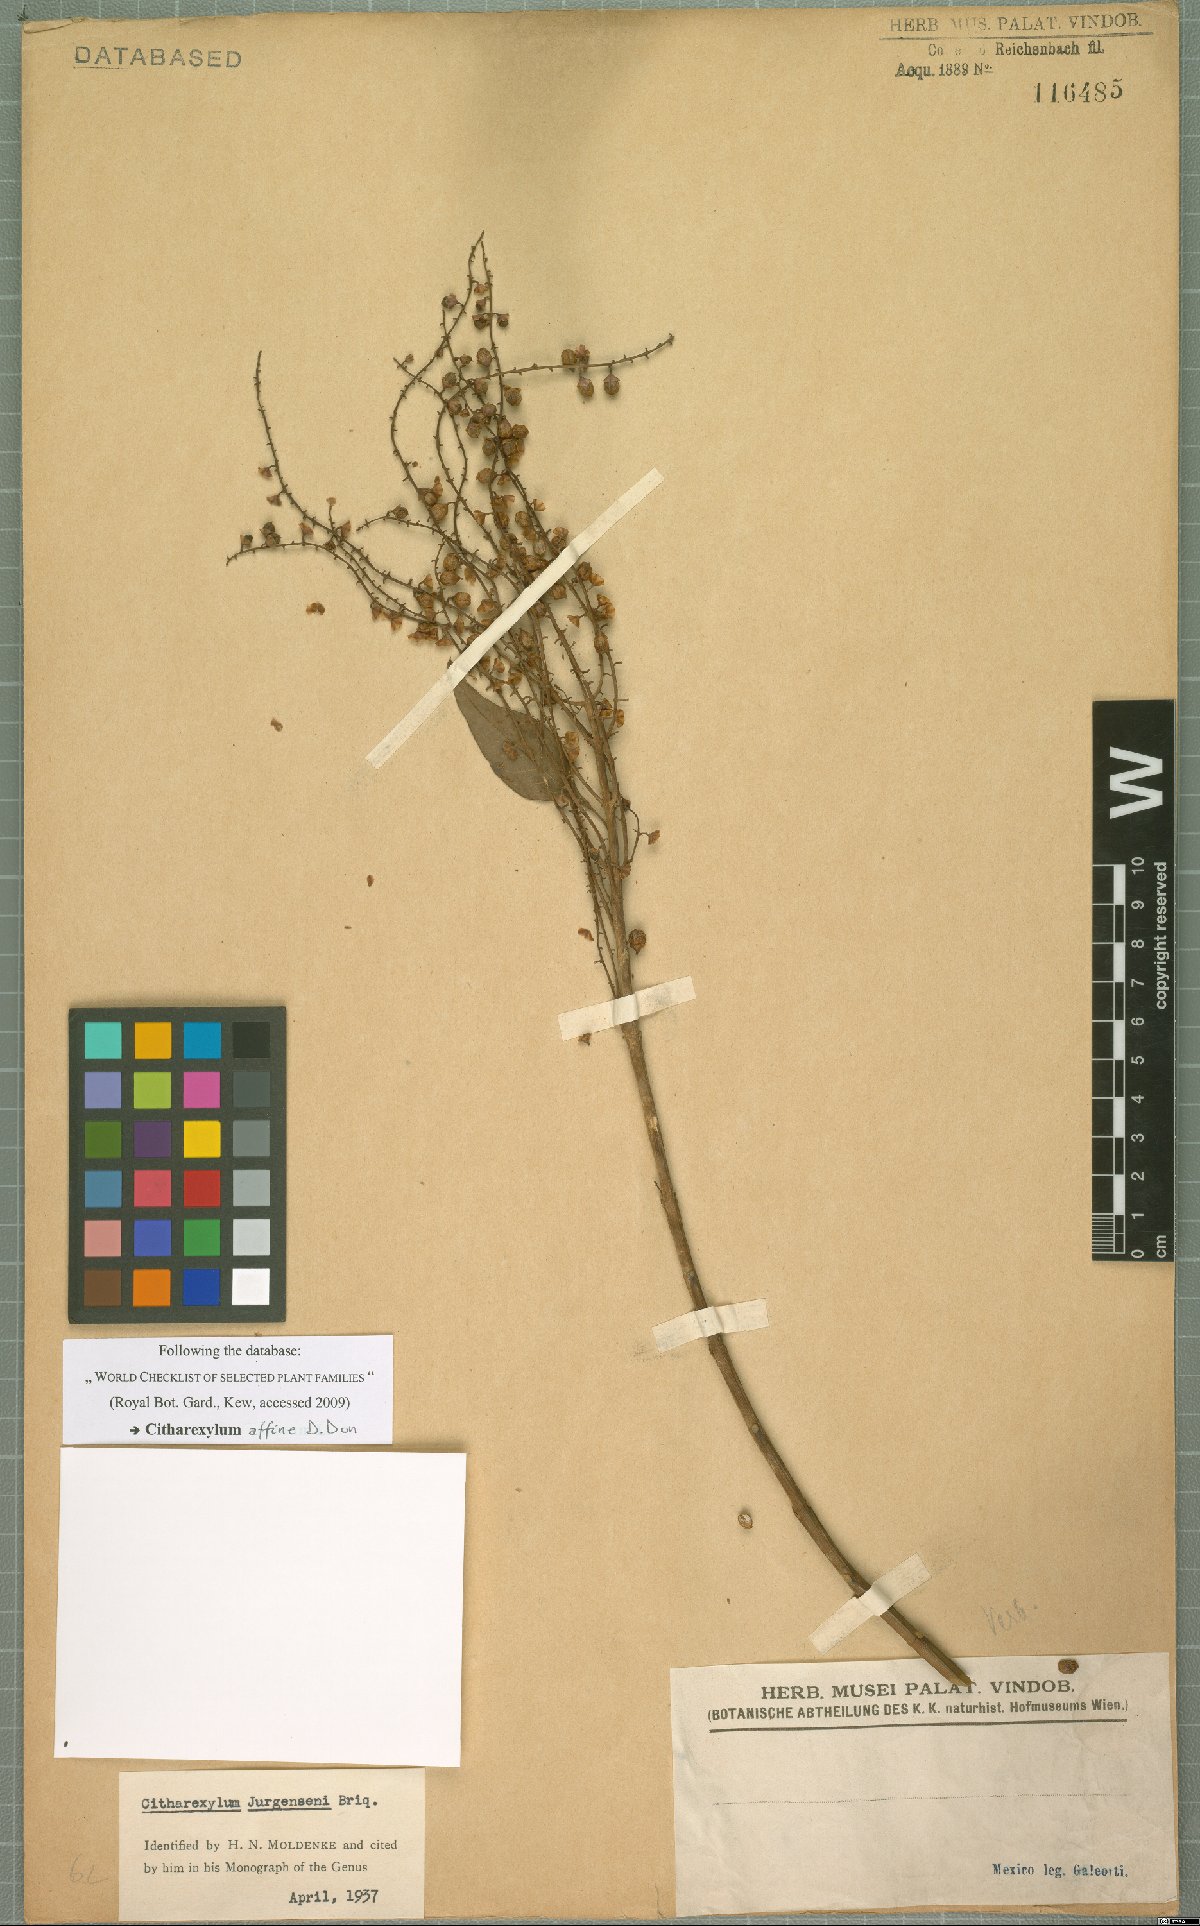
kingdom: Plantae
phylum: Tracheophyta
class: Magnoliopsida
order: Lamiales
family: Verbenaceae
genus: Citharexylum
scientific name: Citharexylum affine
